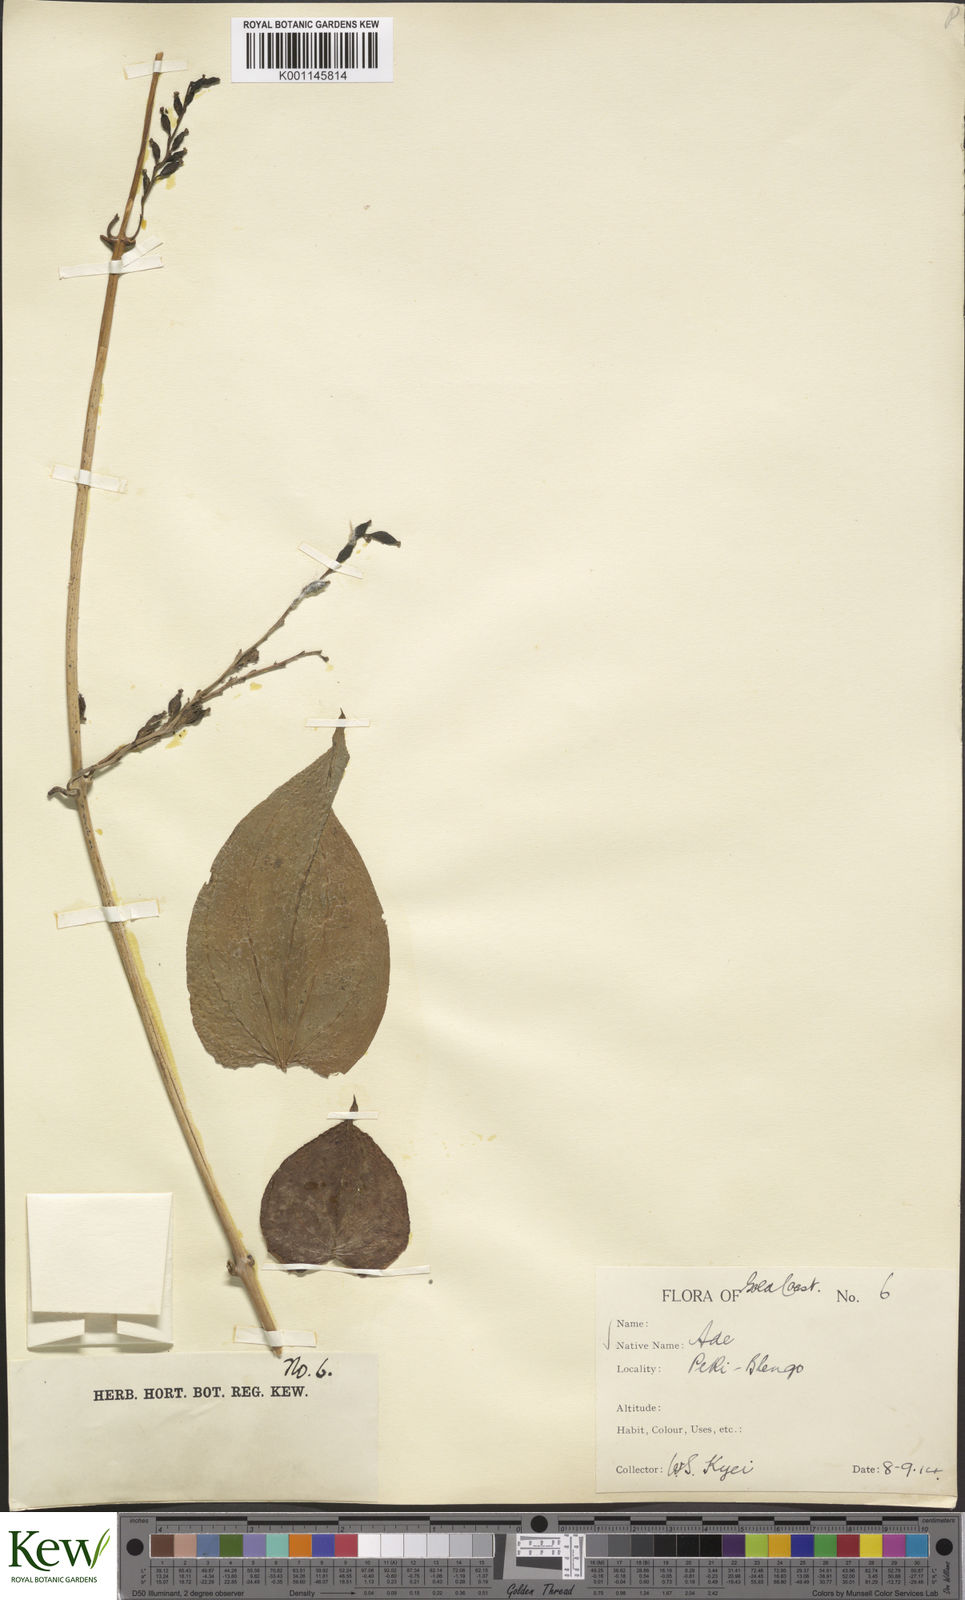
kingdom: Plantae
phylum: Tracheophyta
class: Liliopsida
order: Dioscoreales
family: Dioscoreaceae
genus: Dioscorea
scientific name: Dioscorea cayenensis
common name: Attoto yam
